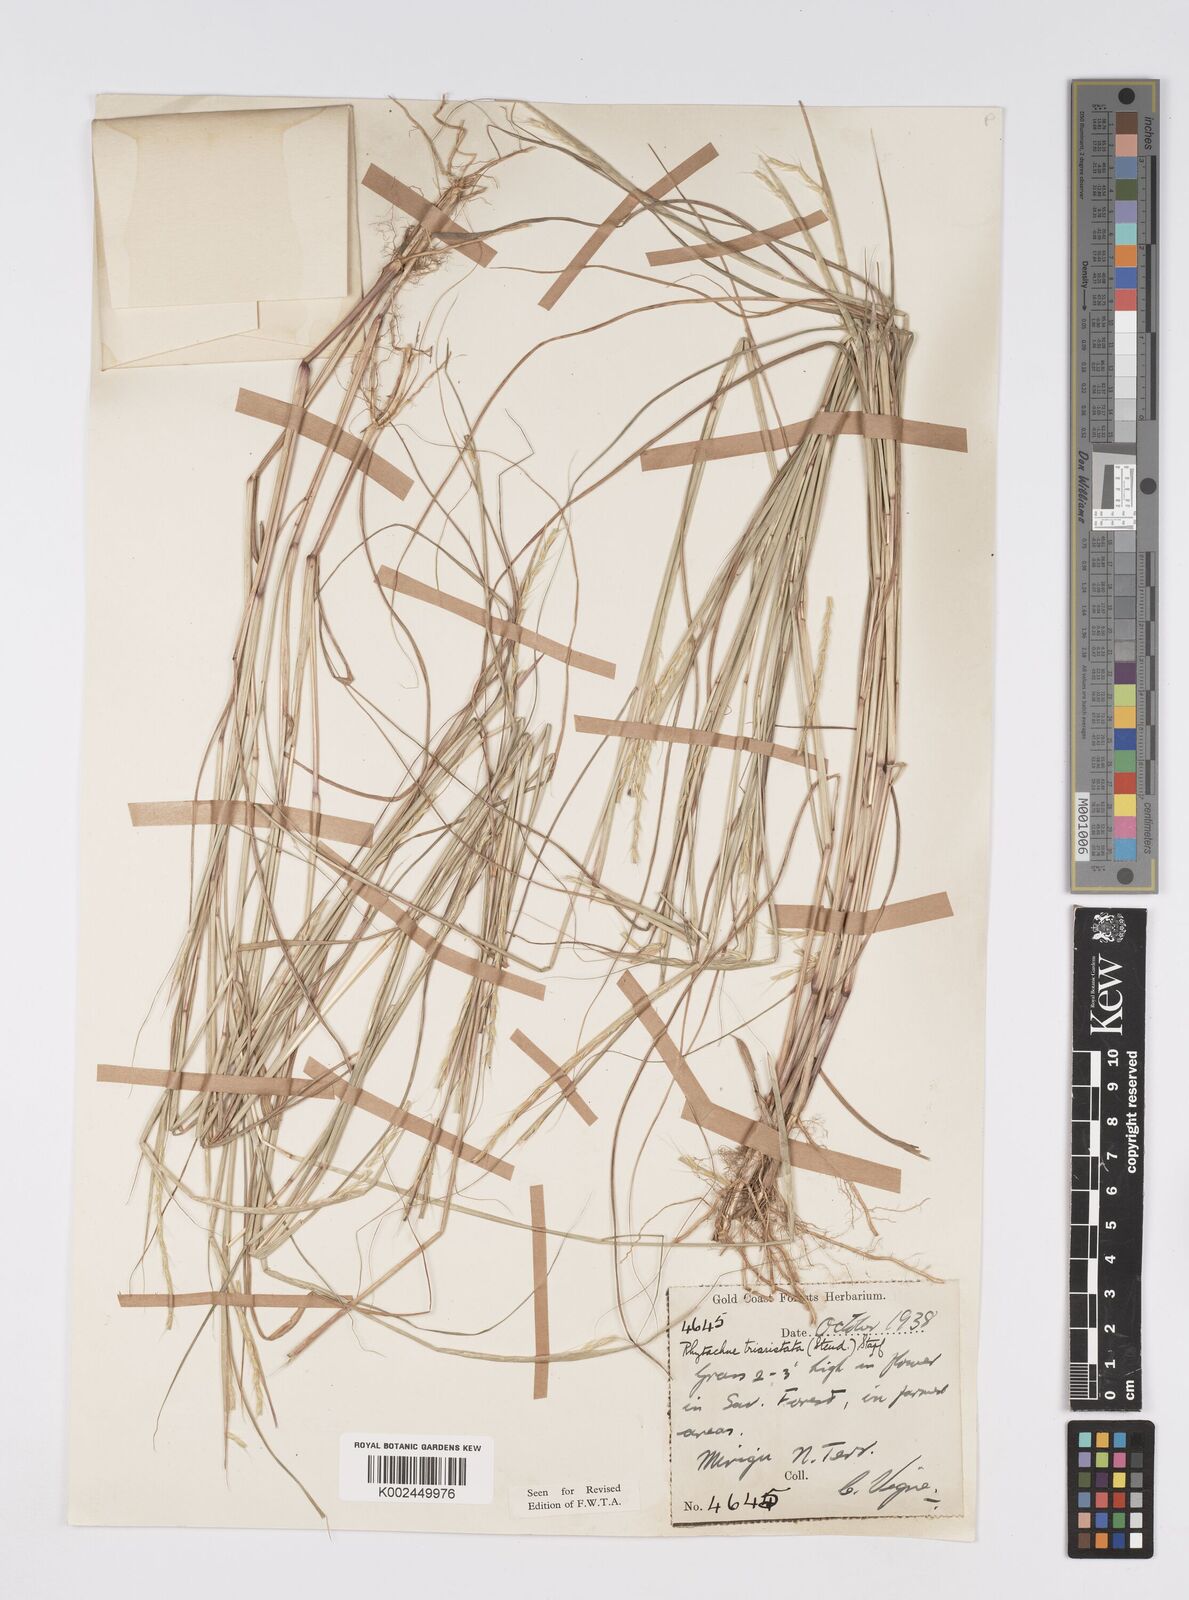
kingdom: Plantae
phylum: Tracheophyta
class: Liliopsida
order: Poales
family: Poaceae
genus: Rhytachne
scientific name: Rhytachne triaristata
